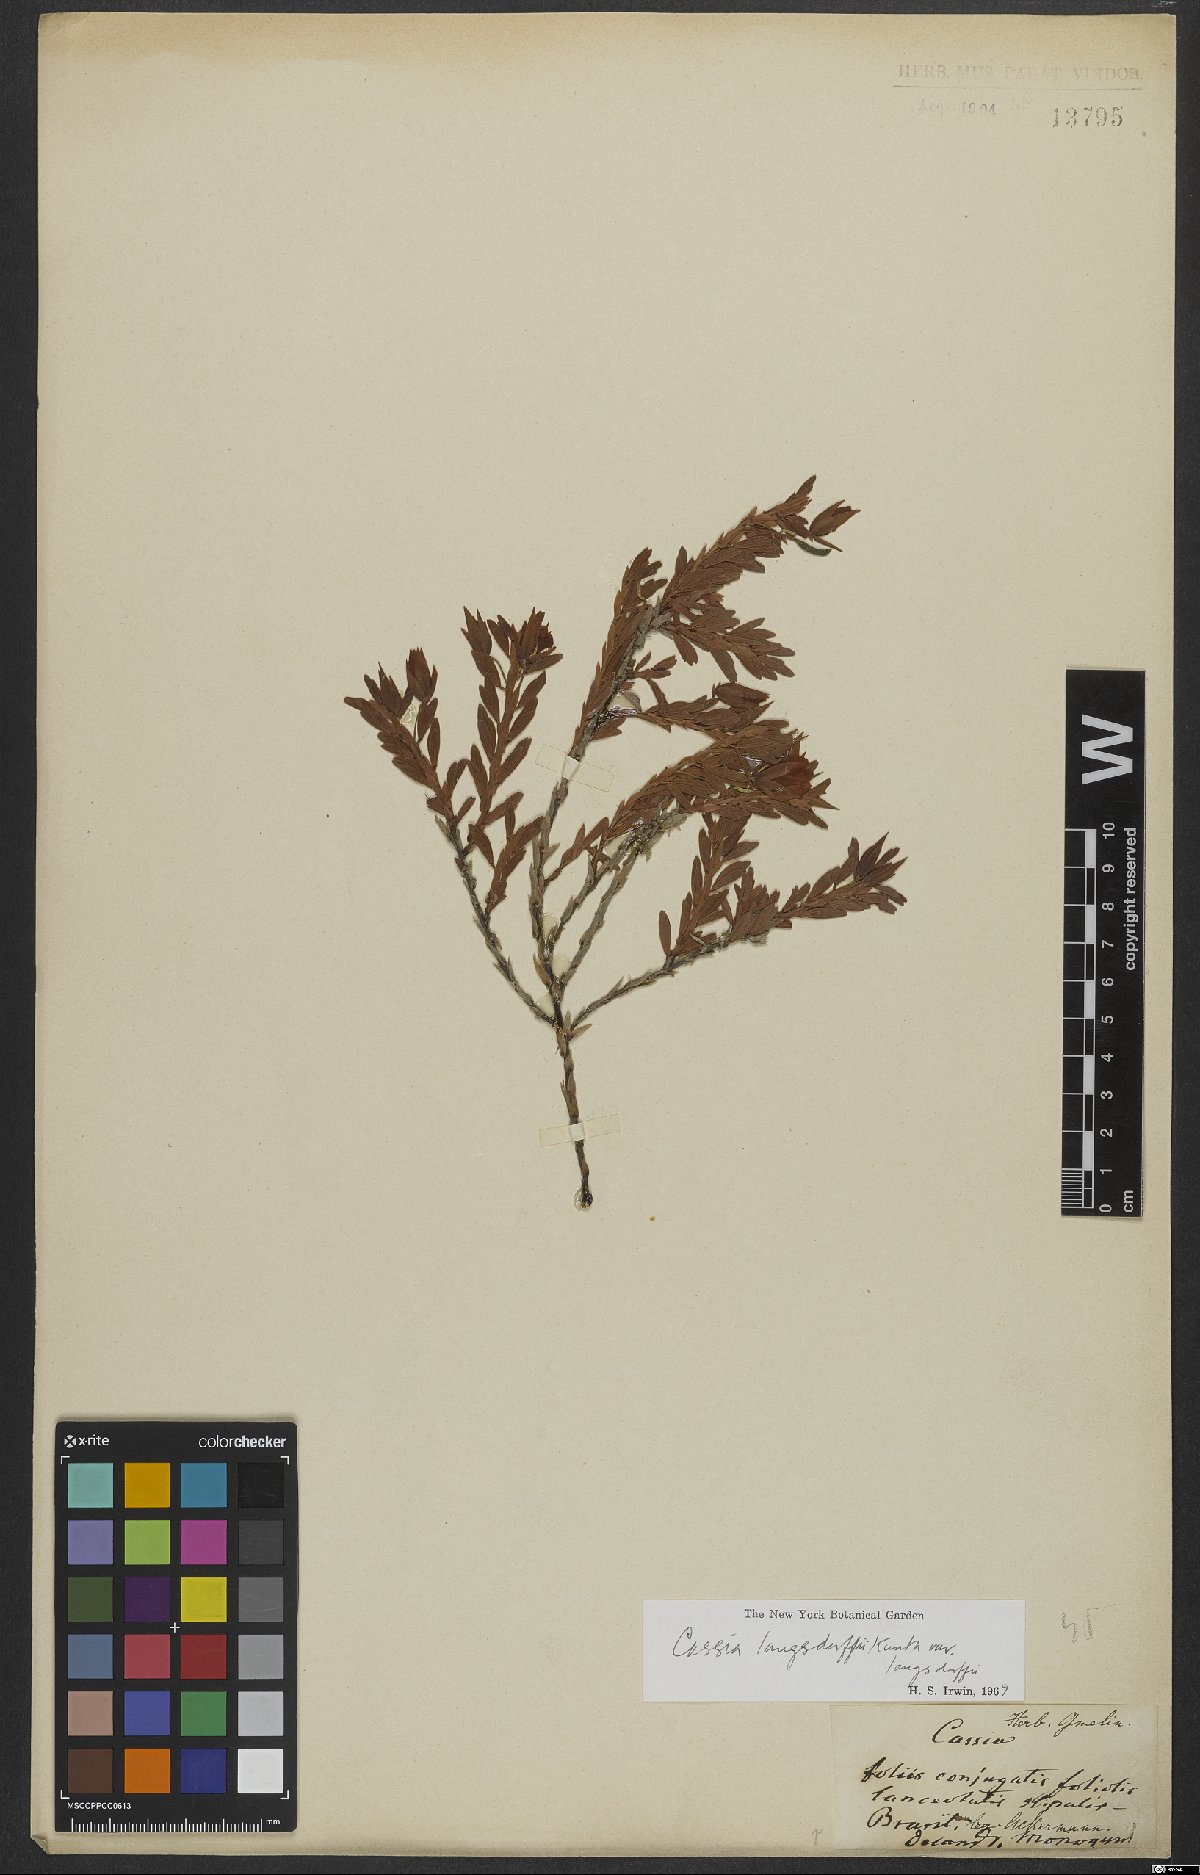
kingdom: Plantae
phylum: Tracheophyta
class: Magnoliopsida
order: Fabales
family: Fabaceae
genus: Chamaecrista
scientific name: Chamaecrista langsdorffii
